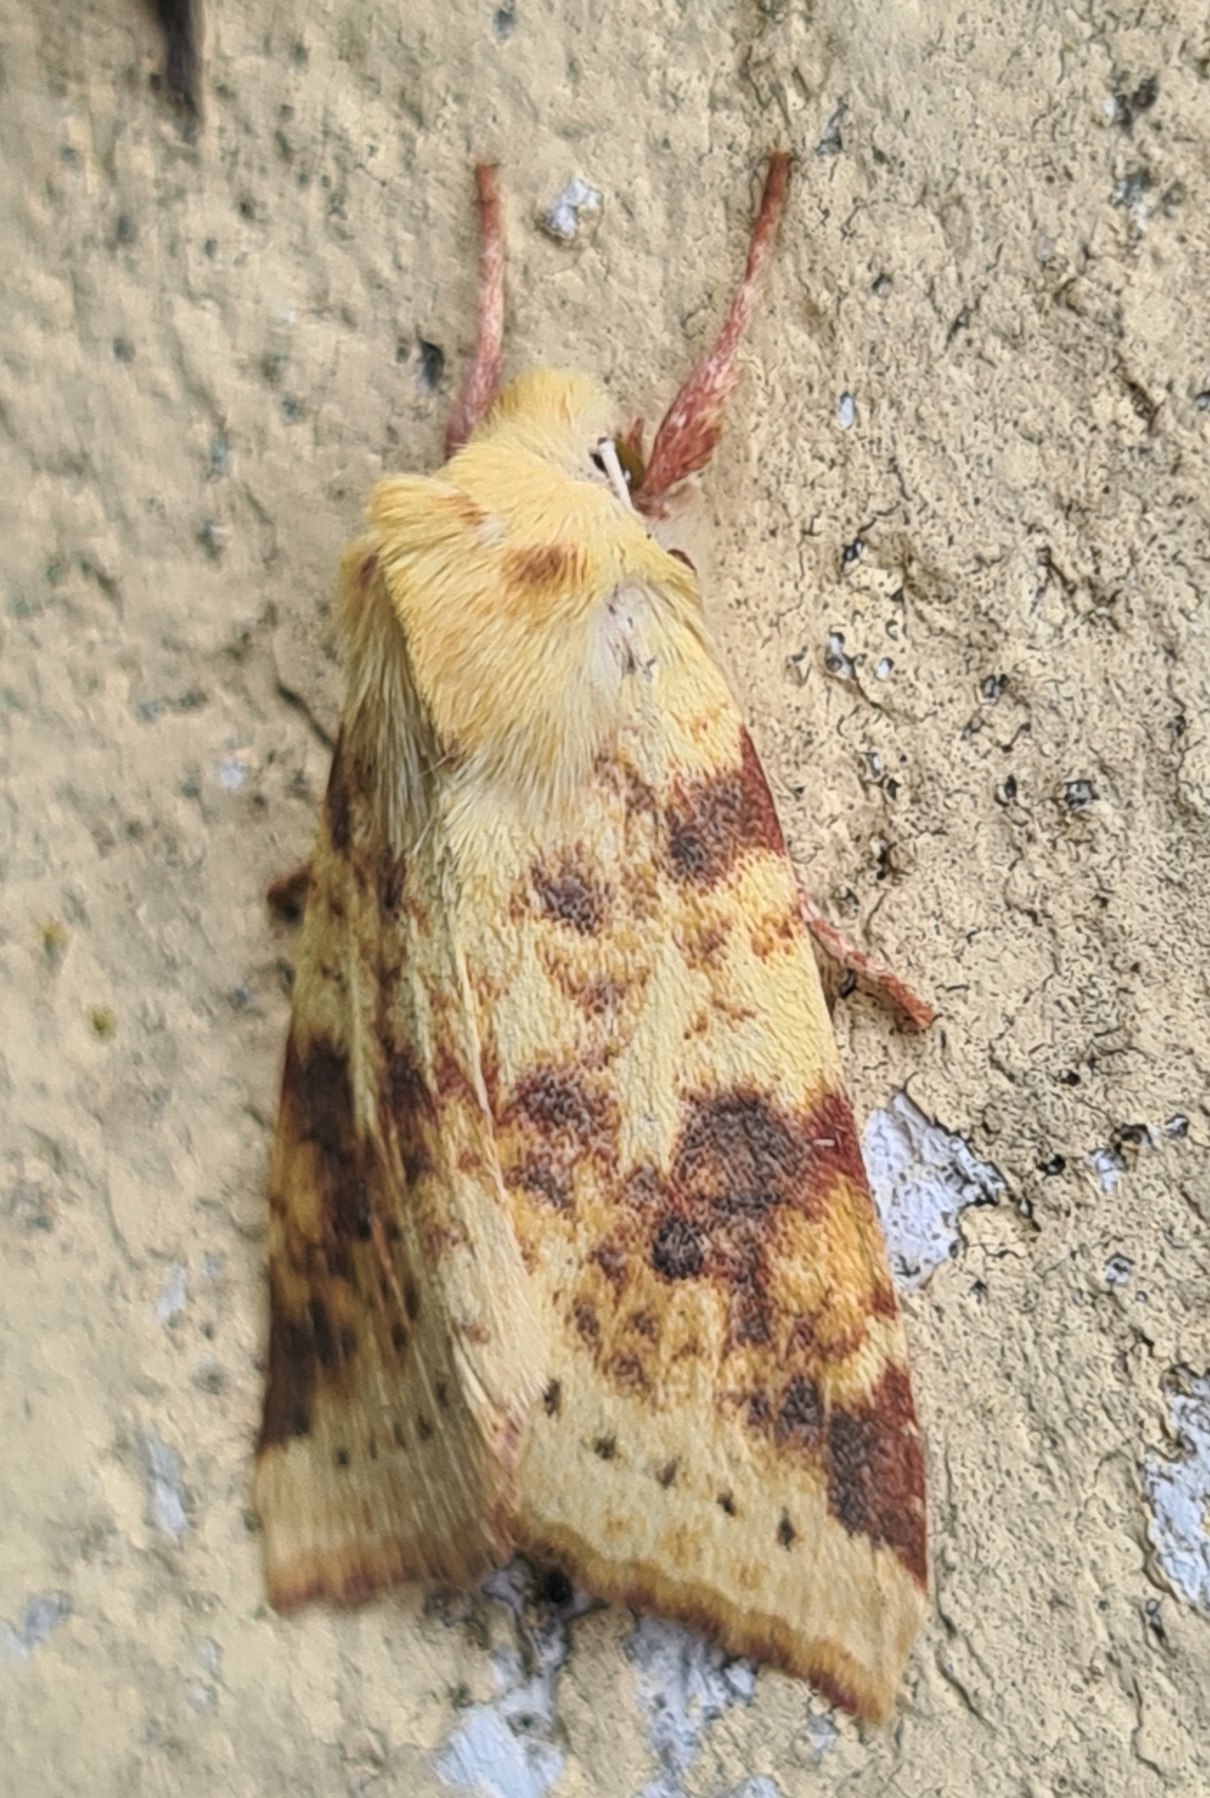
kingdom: Animalia
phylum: Arthropoda
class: Insecta
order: Lepidoptera
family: Noctuidae
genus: Xanthia
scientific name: Xanthia Cirrhia icteritia
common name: Brombær-guldugle
